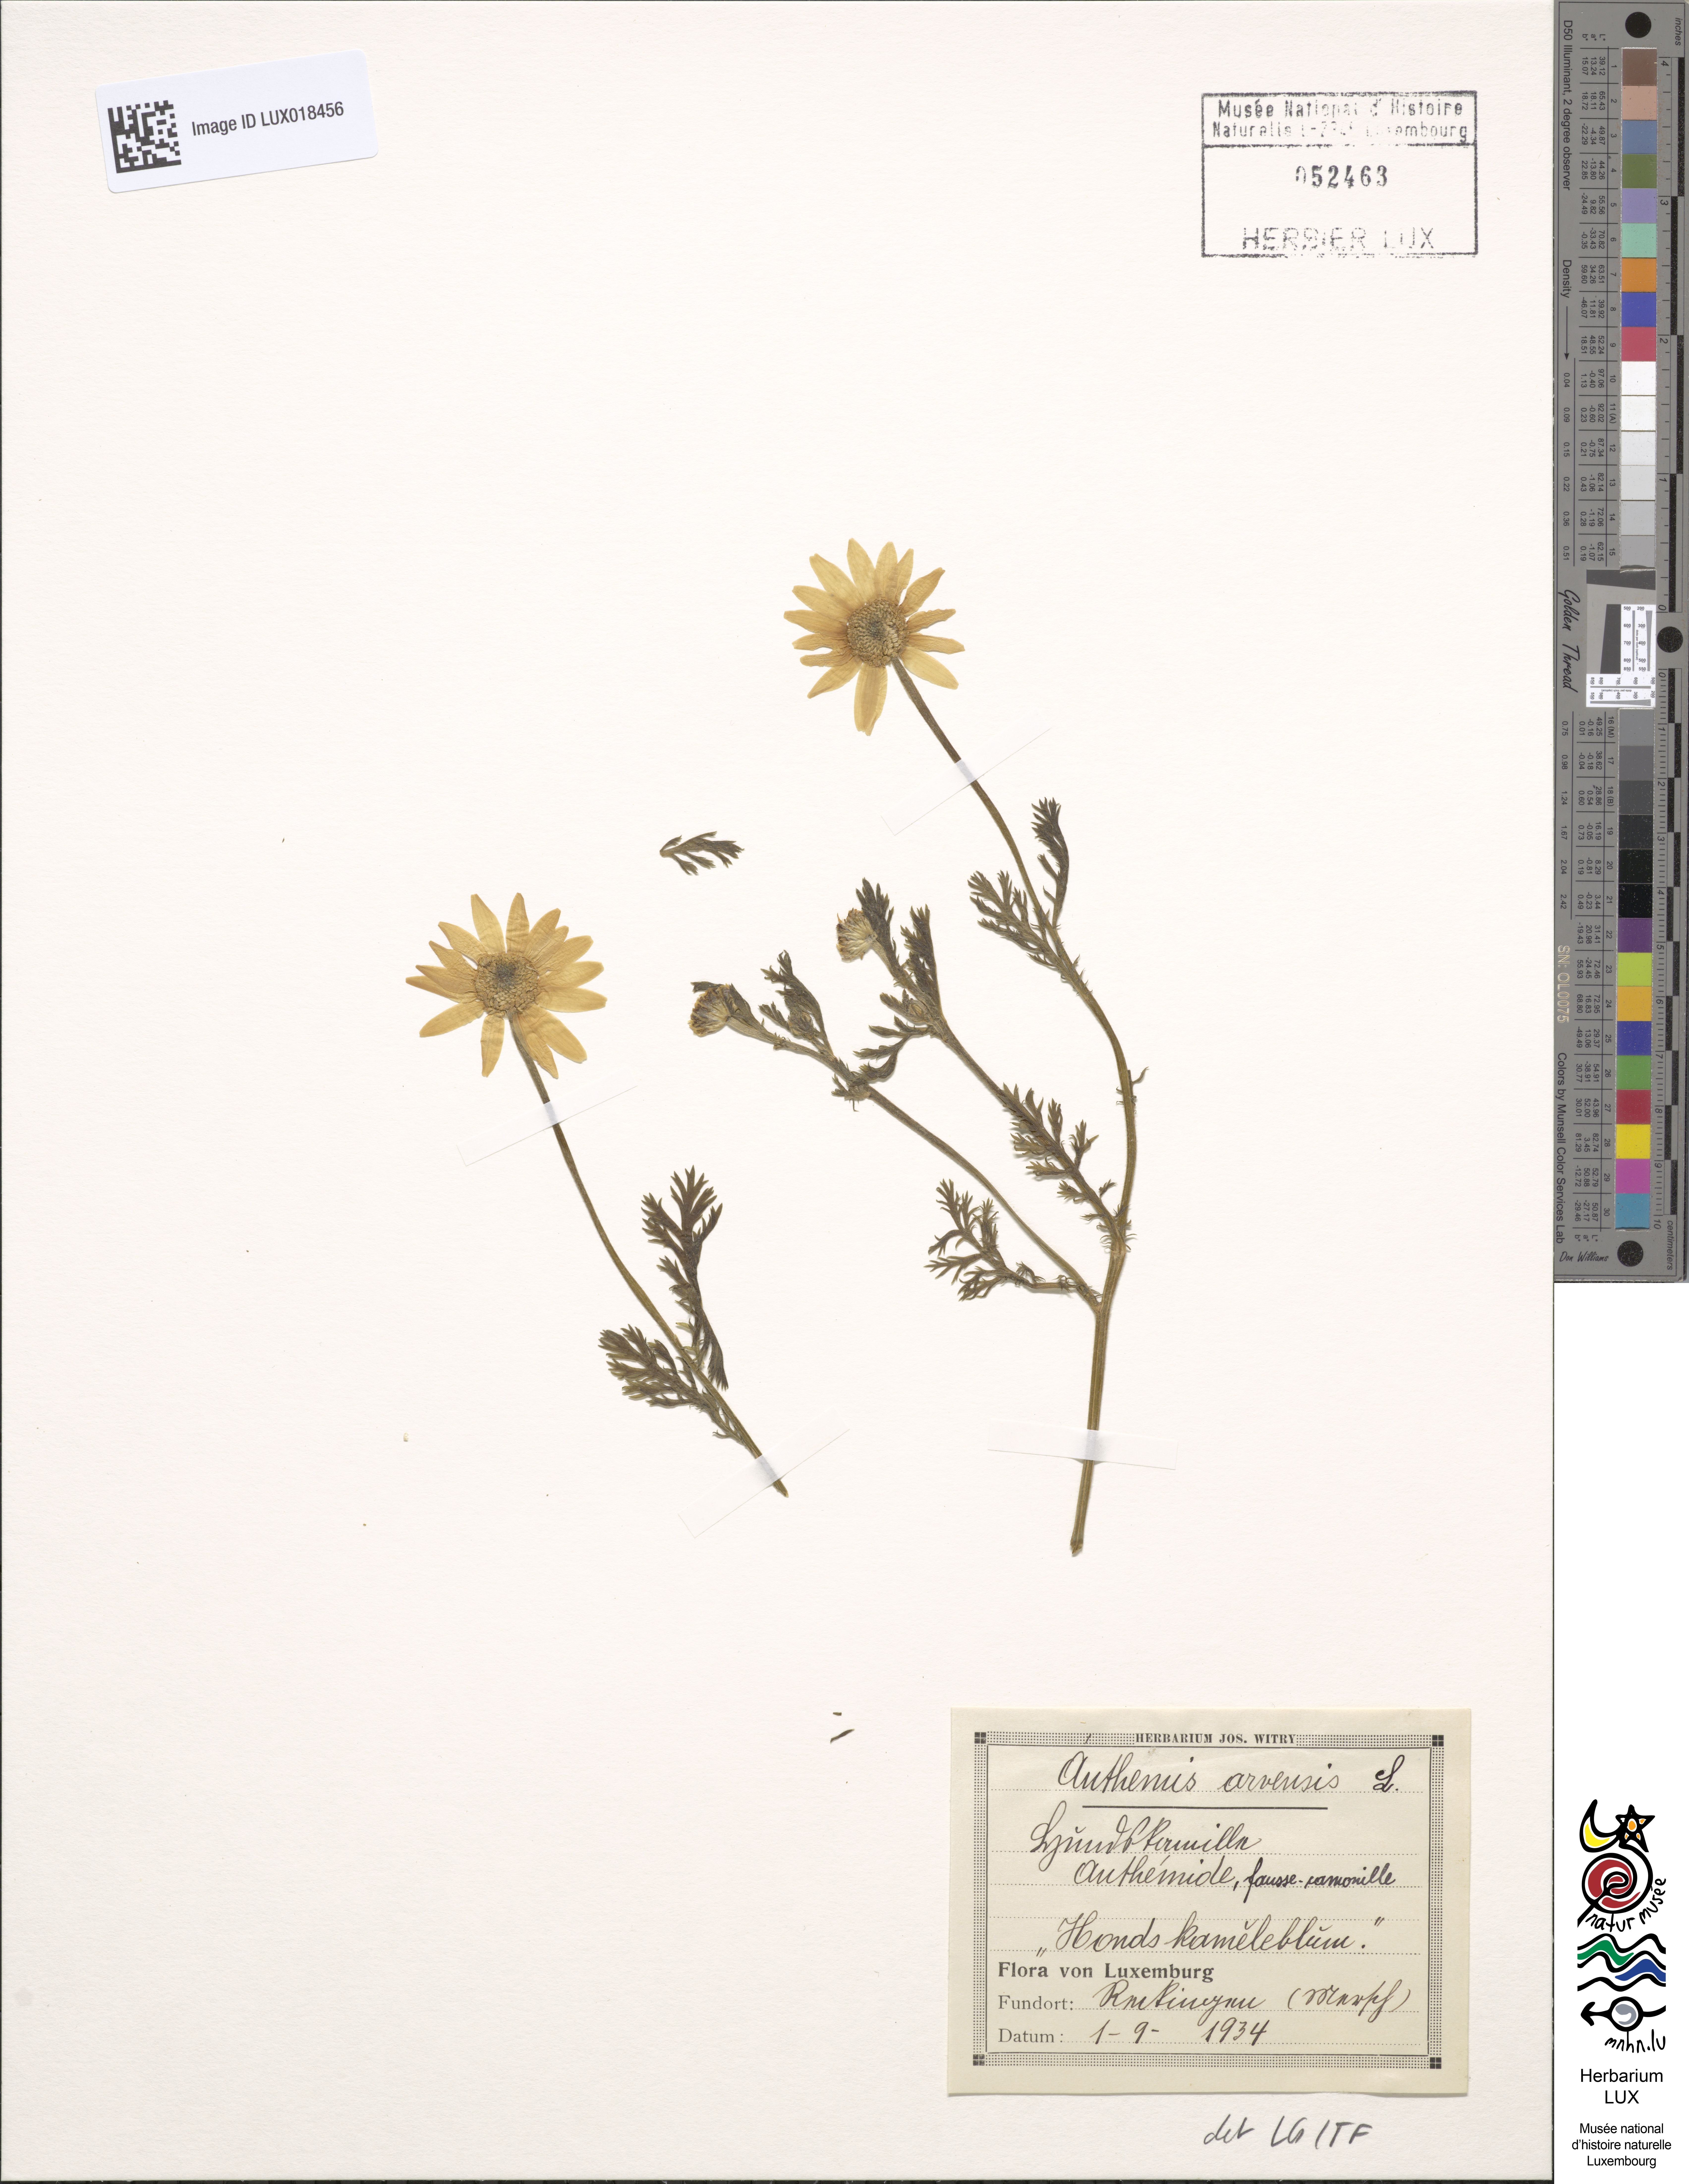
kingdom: Plantae
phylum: Tracheophyta
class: Magnoliopsida
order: Asterales
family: Asteraceae
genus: Anthemis
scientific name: Anthemis arvensis
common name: Corn chamomile
